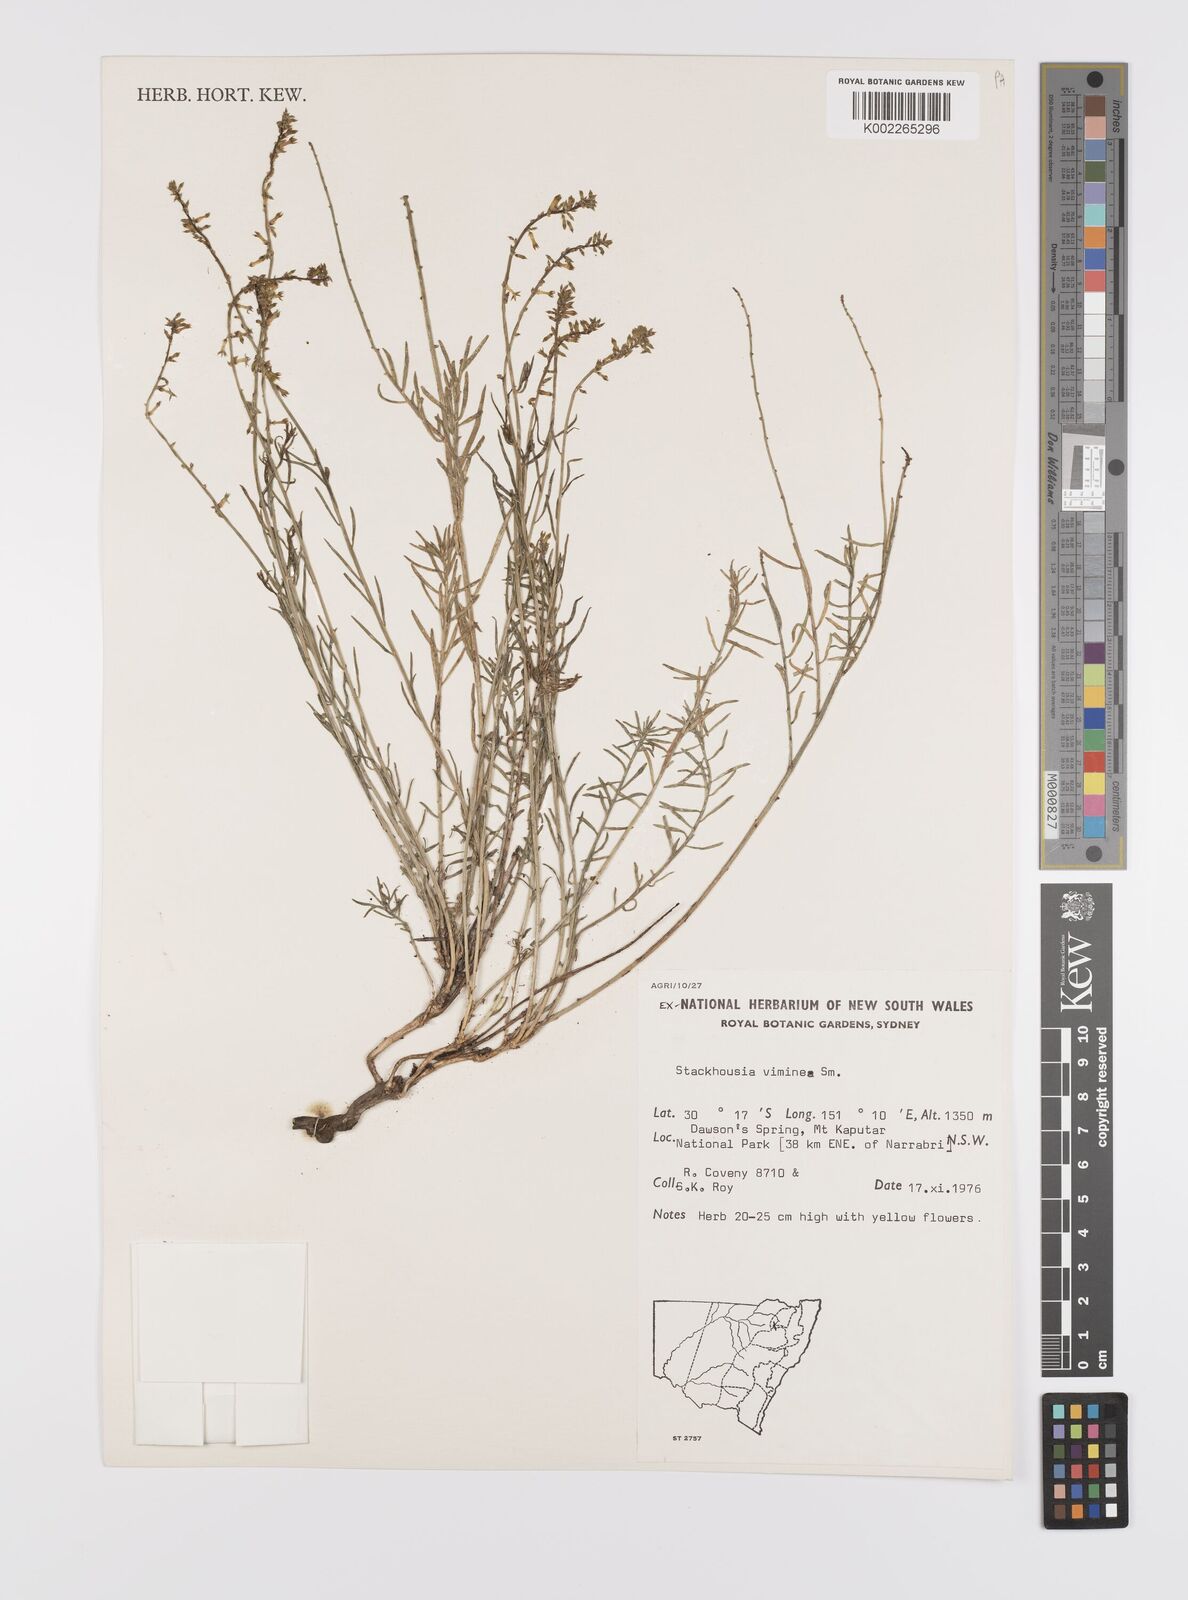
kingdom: Plantae
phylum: Tracheophyta
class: Magnoliopsida
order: Celastrales
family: Celastraceae
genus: Stackhousia
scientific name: Stackhousia viminea
